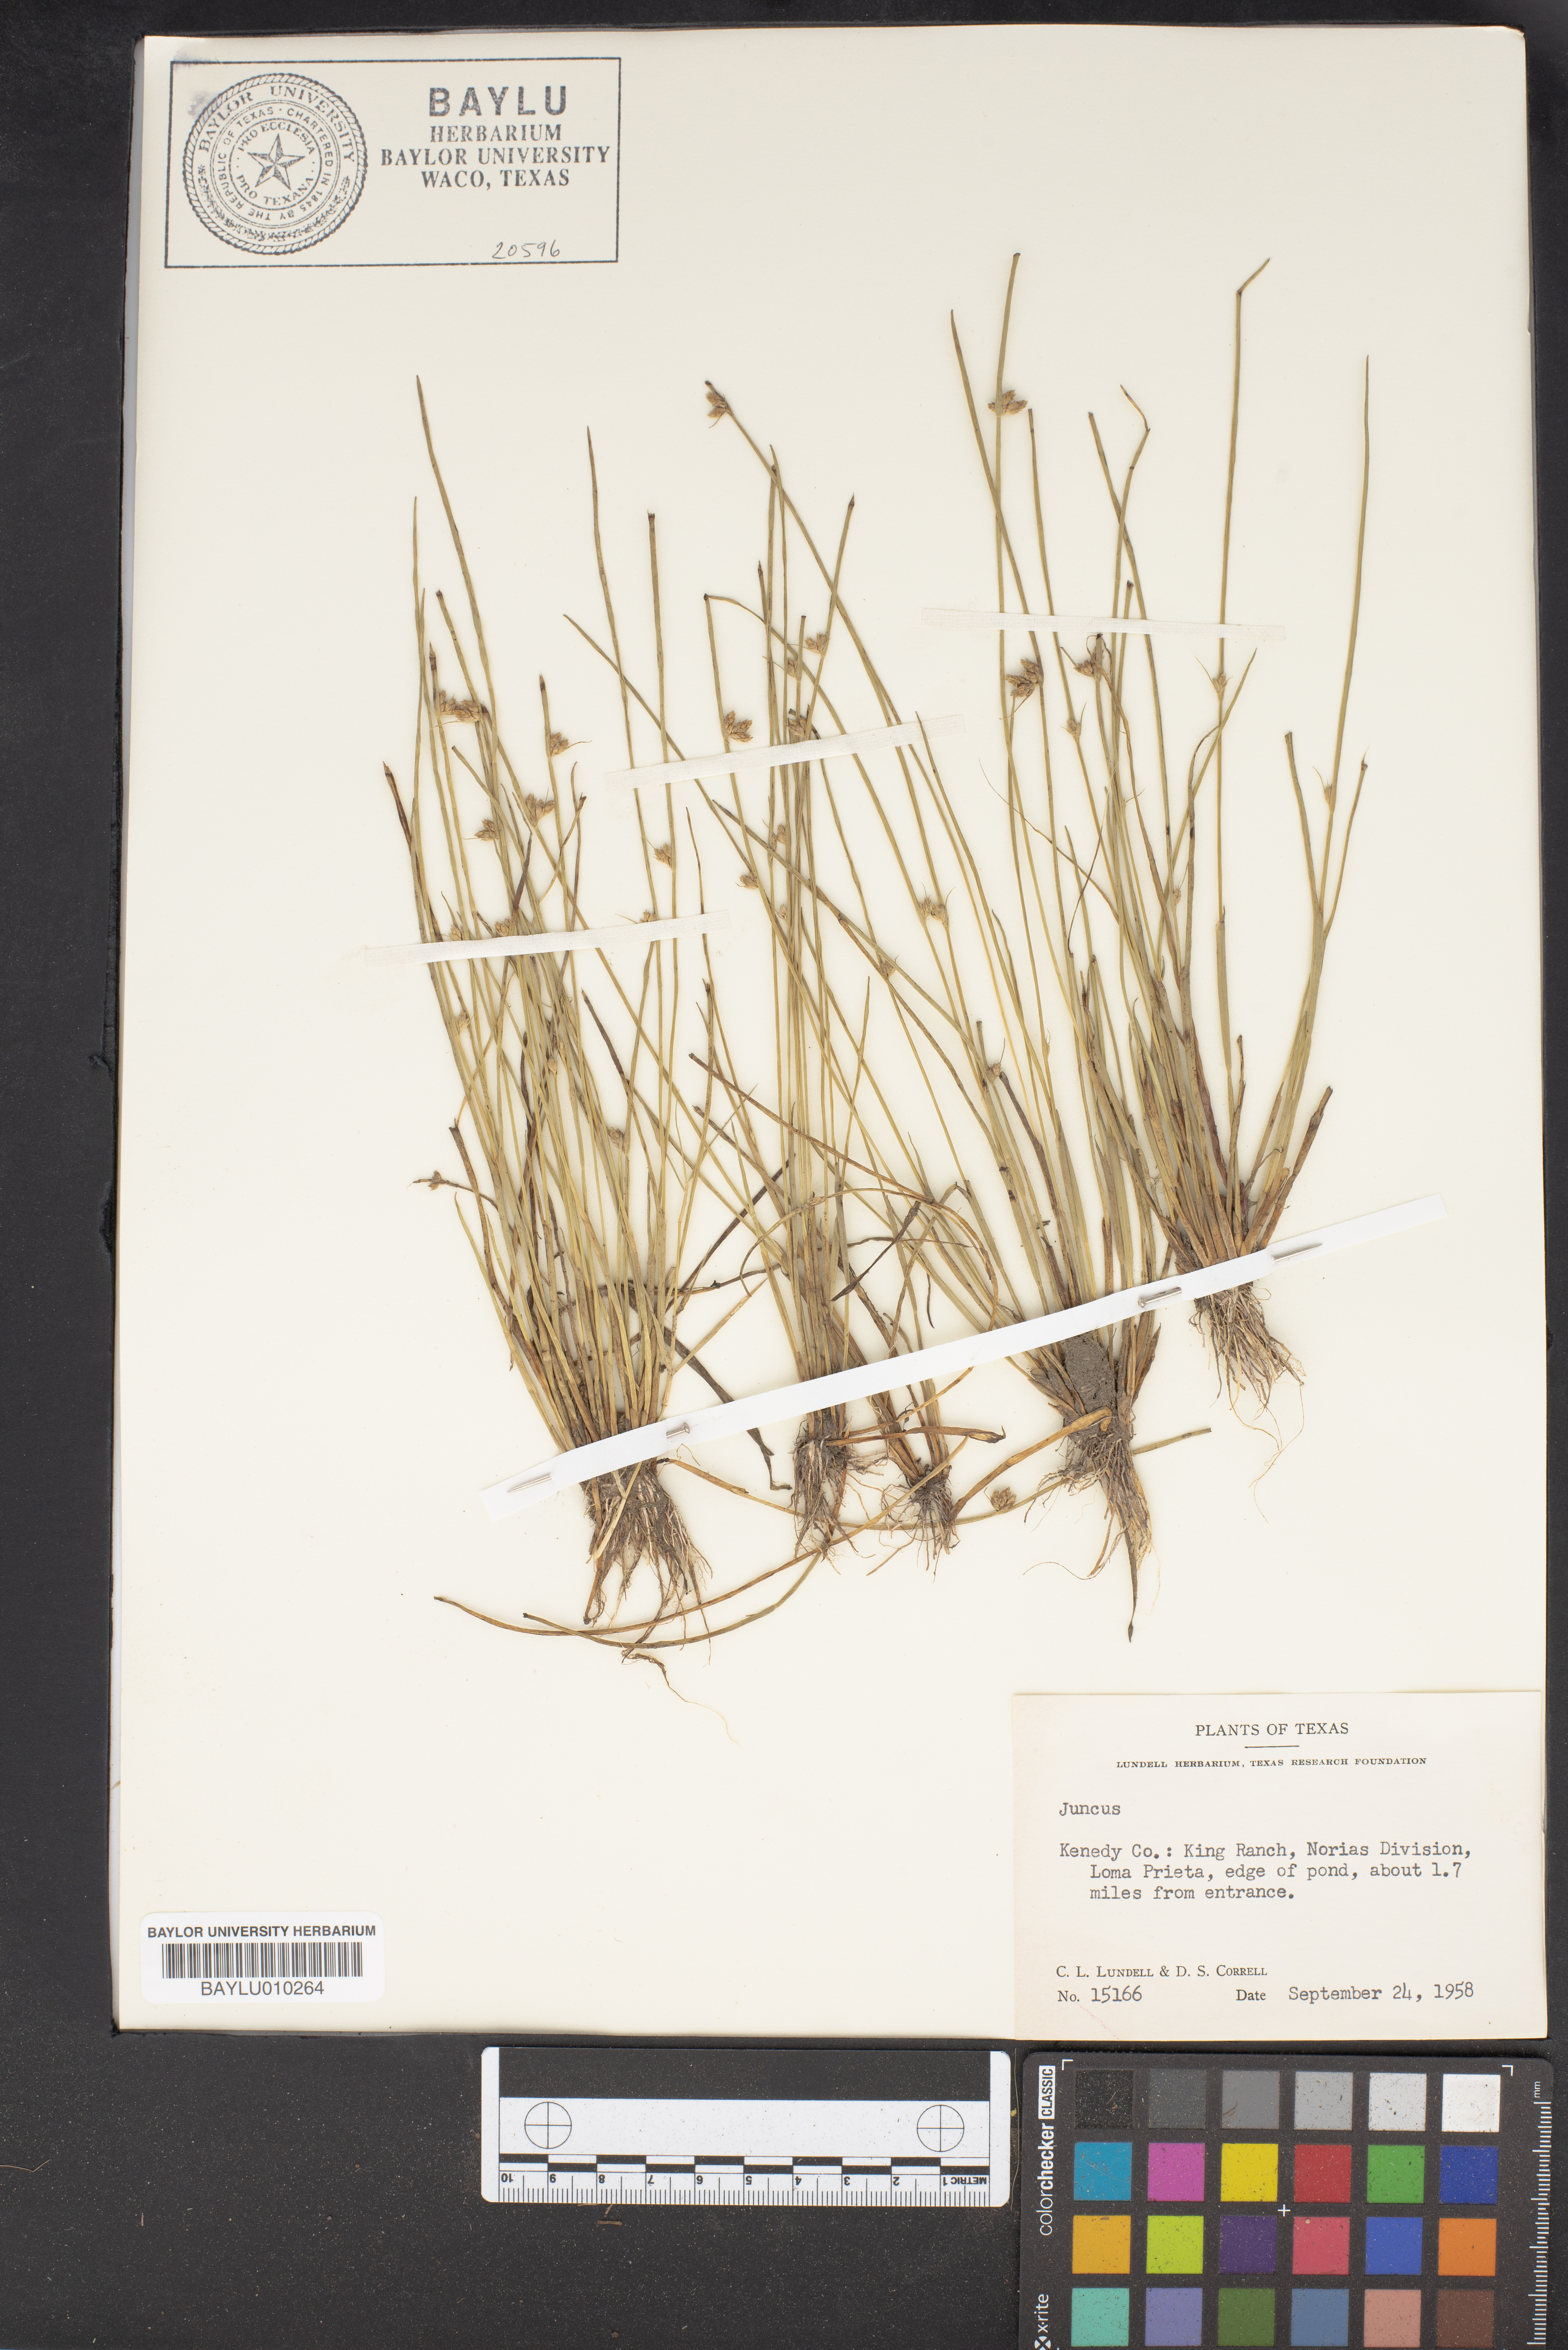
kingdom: Plantae
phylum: Tracheophyta
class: Liliopsida
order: Poales
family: Juncaceae
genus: Juncus
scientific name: Juncus
